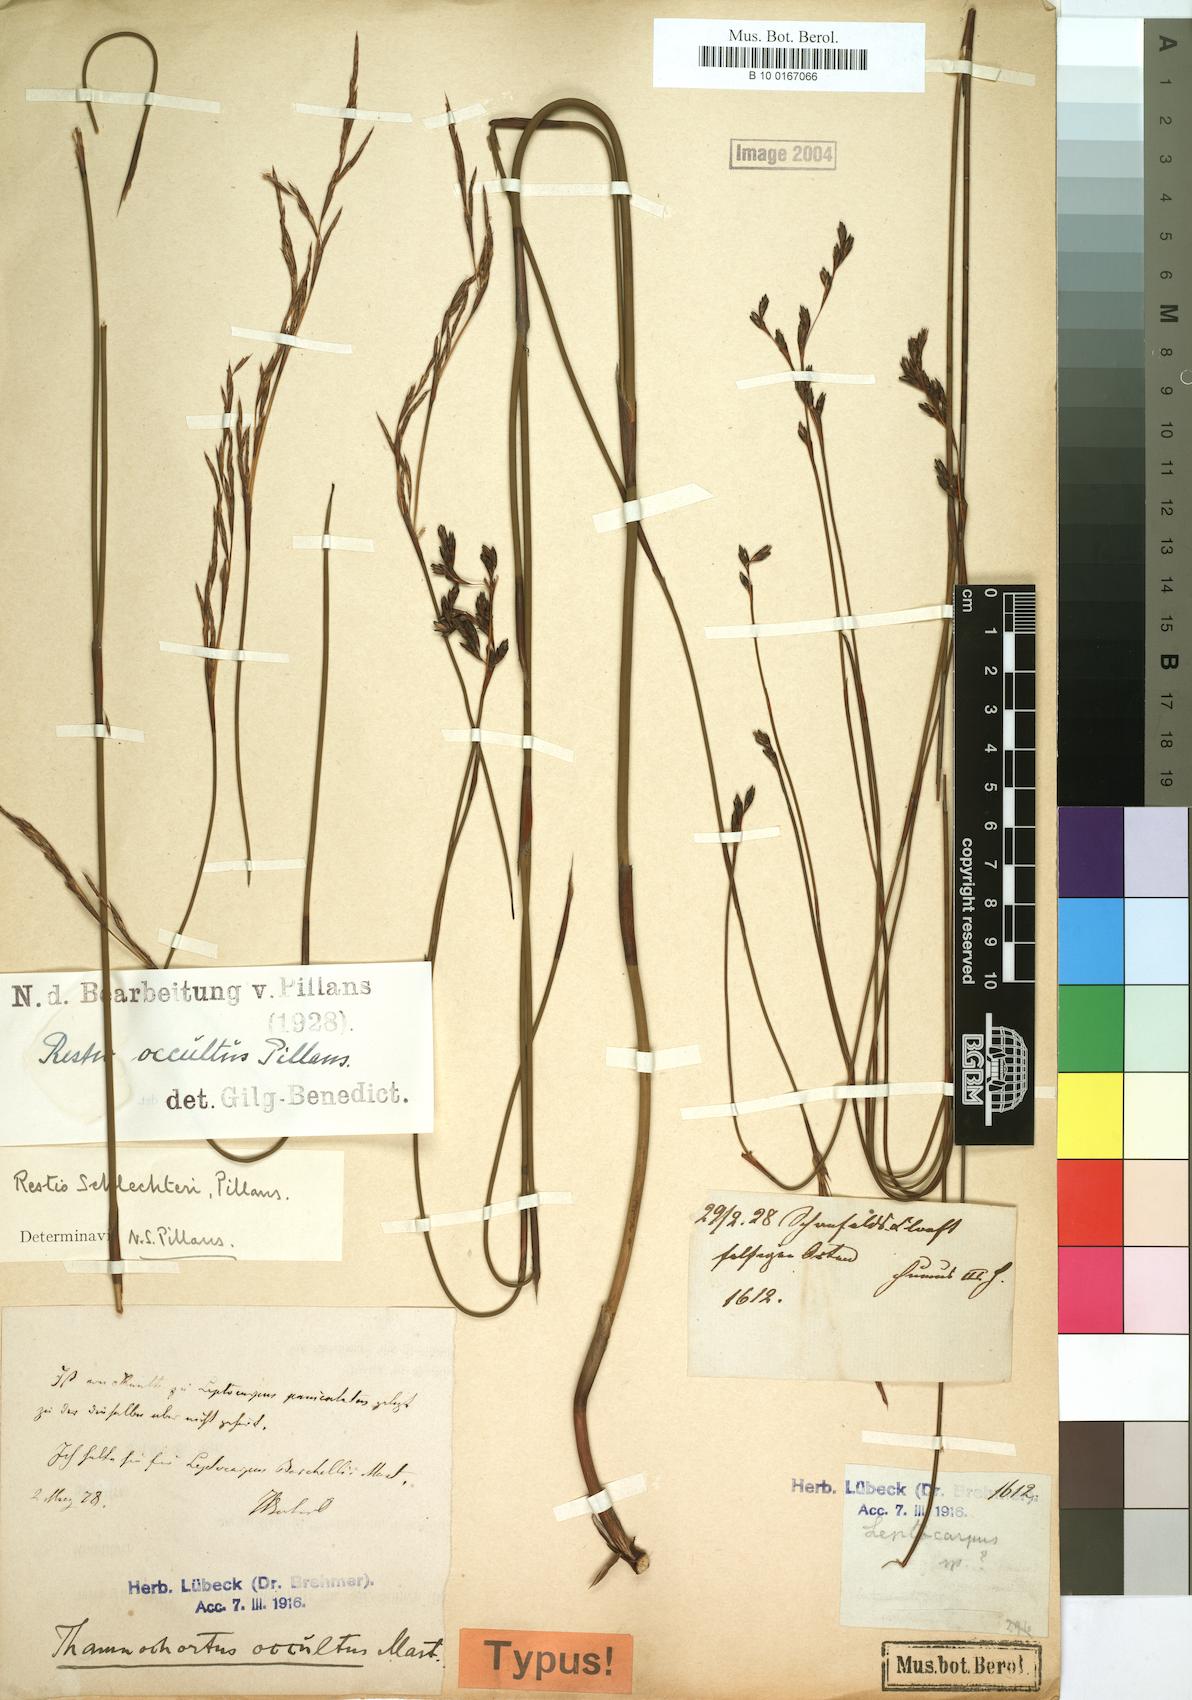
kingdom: Plantae
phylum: Tracheophyta
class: Liliopsida
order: Poales
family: Restionaceae
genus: Restio
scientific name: Restio occultus
